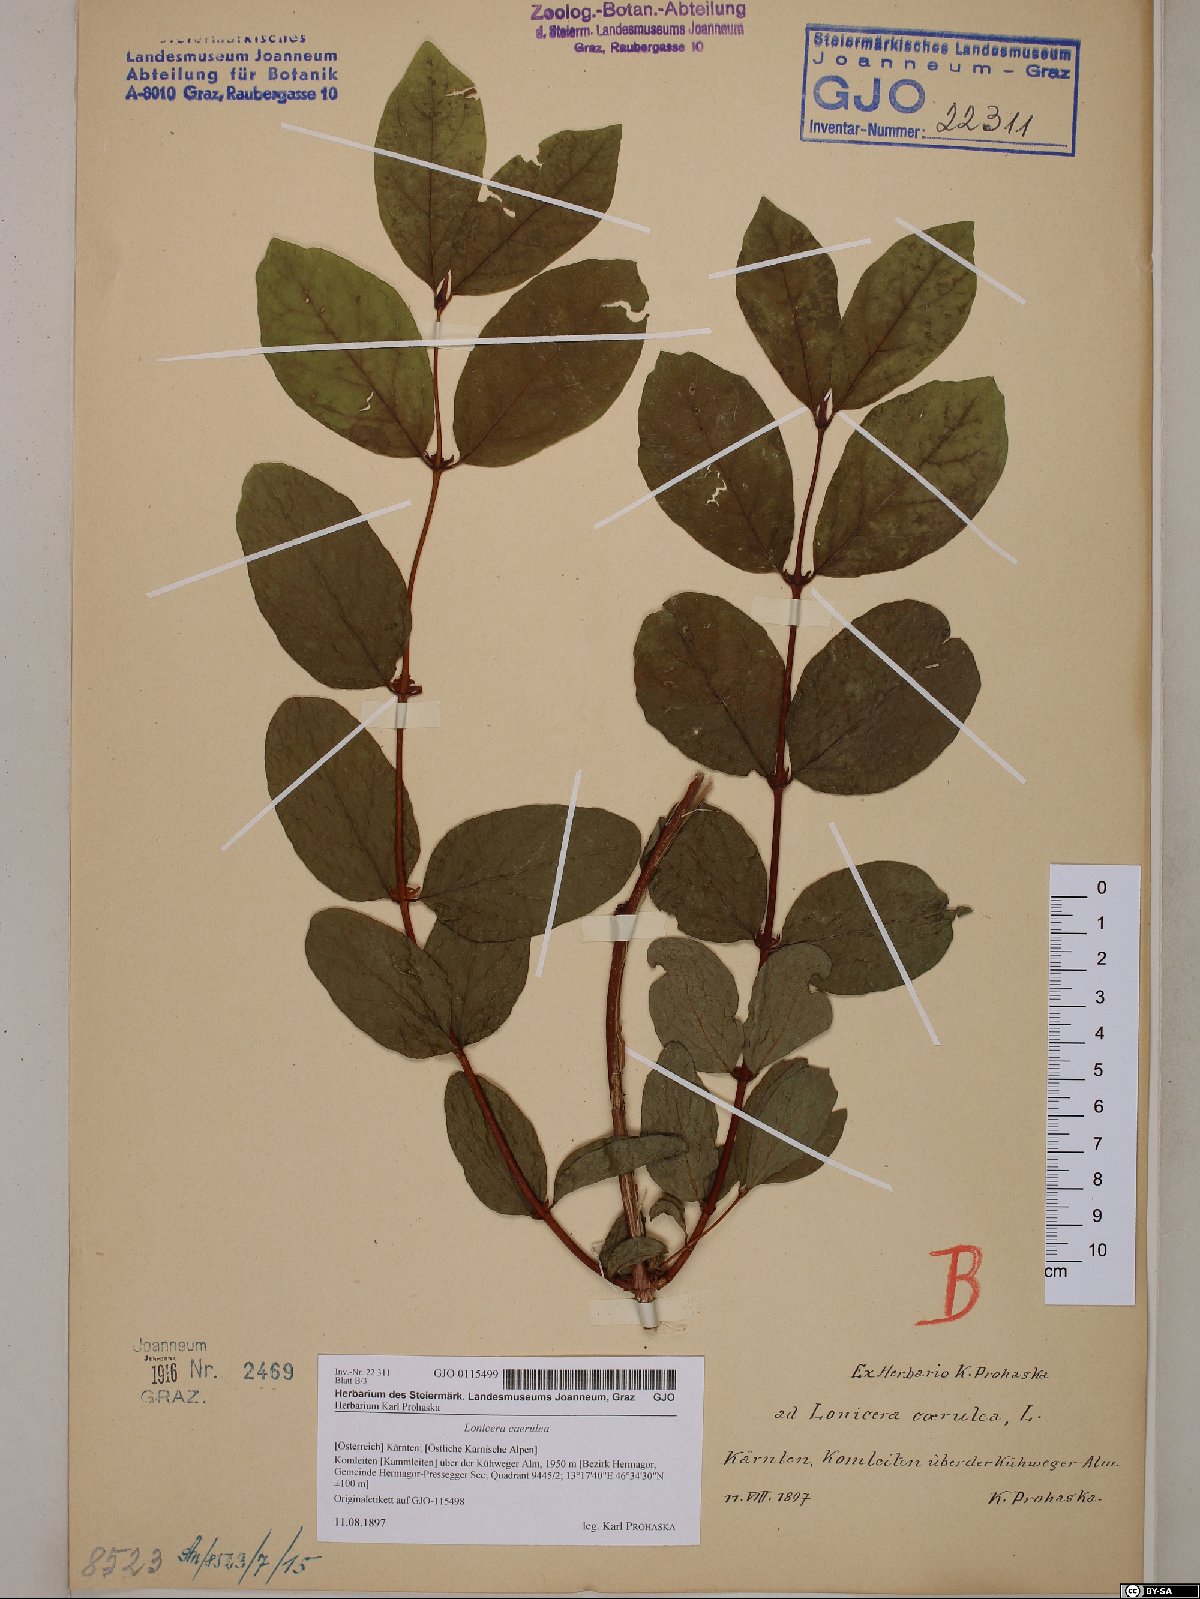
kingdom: Plantae
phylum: Tracheophyta
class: Magnoliopsida
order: Dipsacales
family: Caprifoliaceae
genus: Lonicera
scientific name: Lonicera caerulea
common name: Blue honeysuckle
